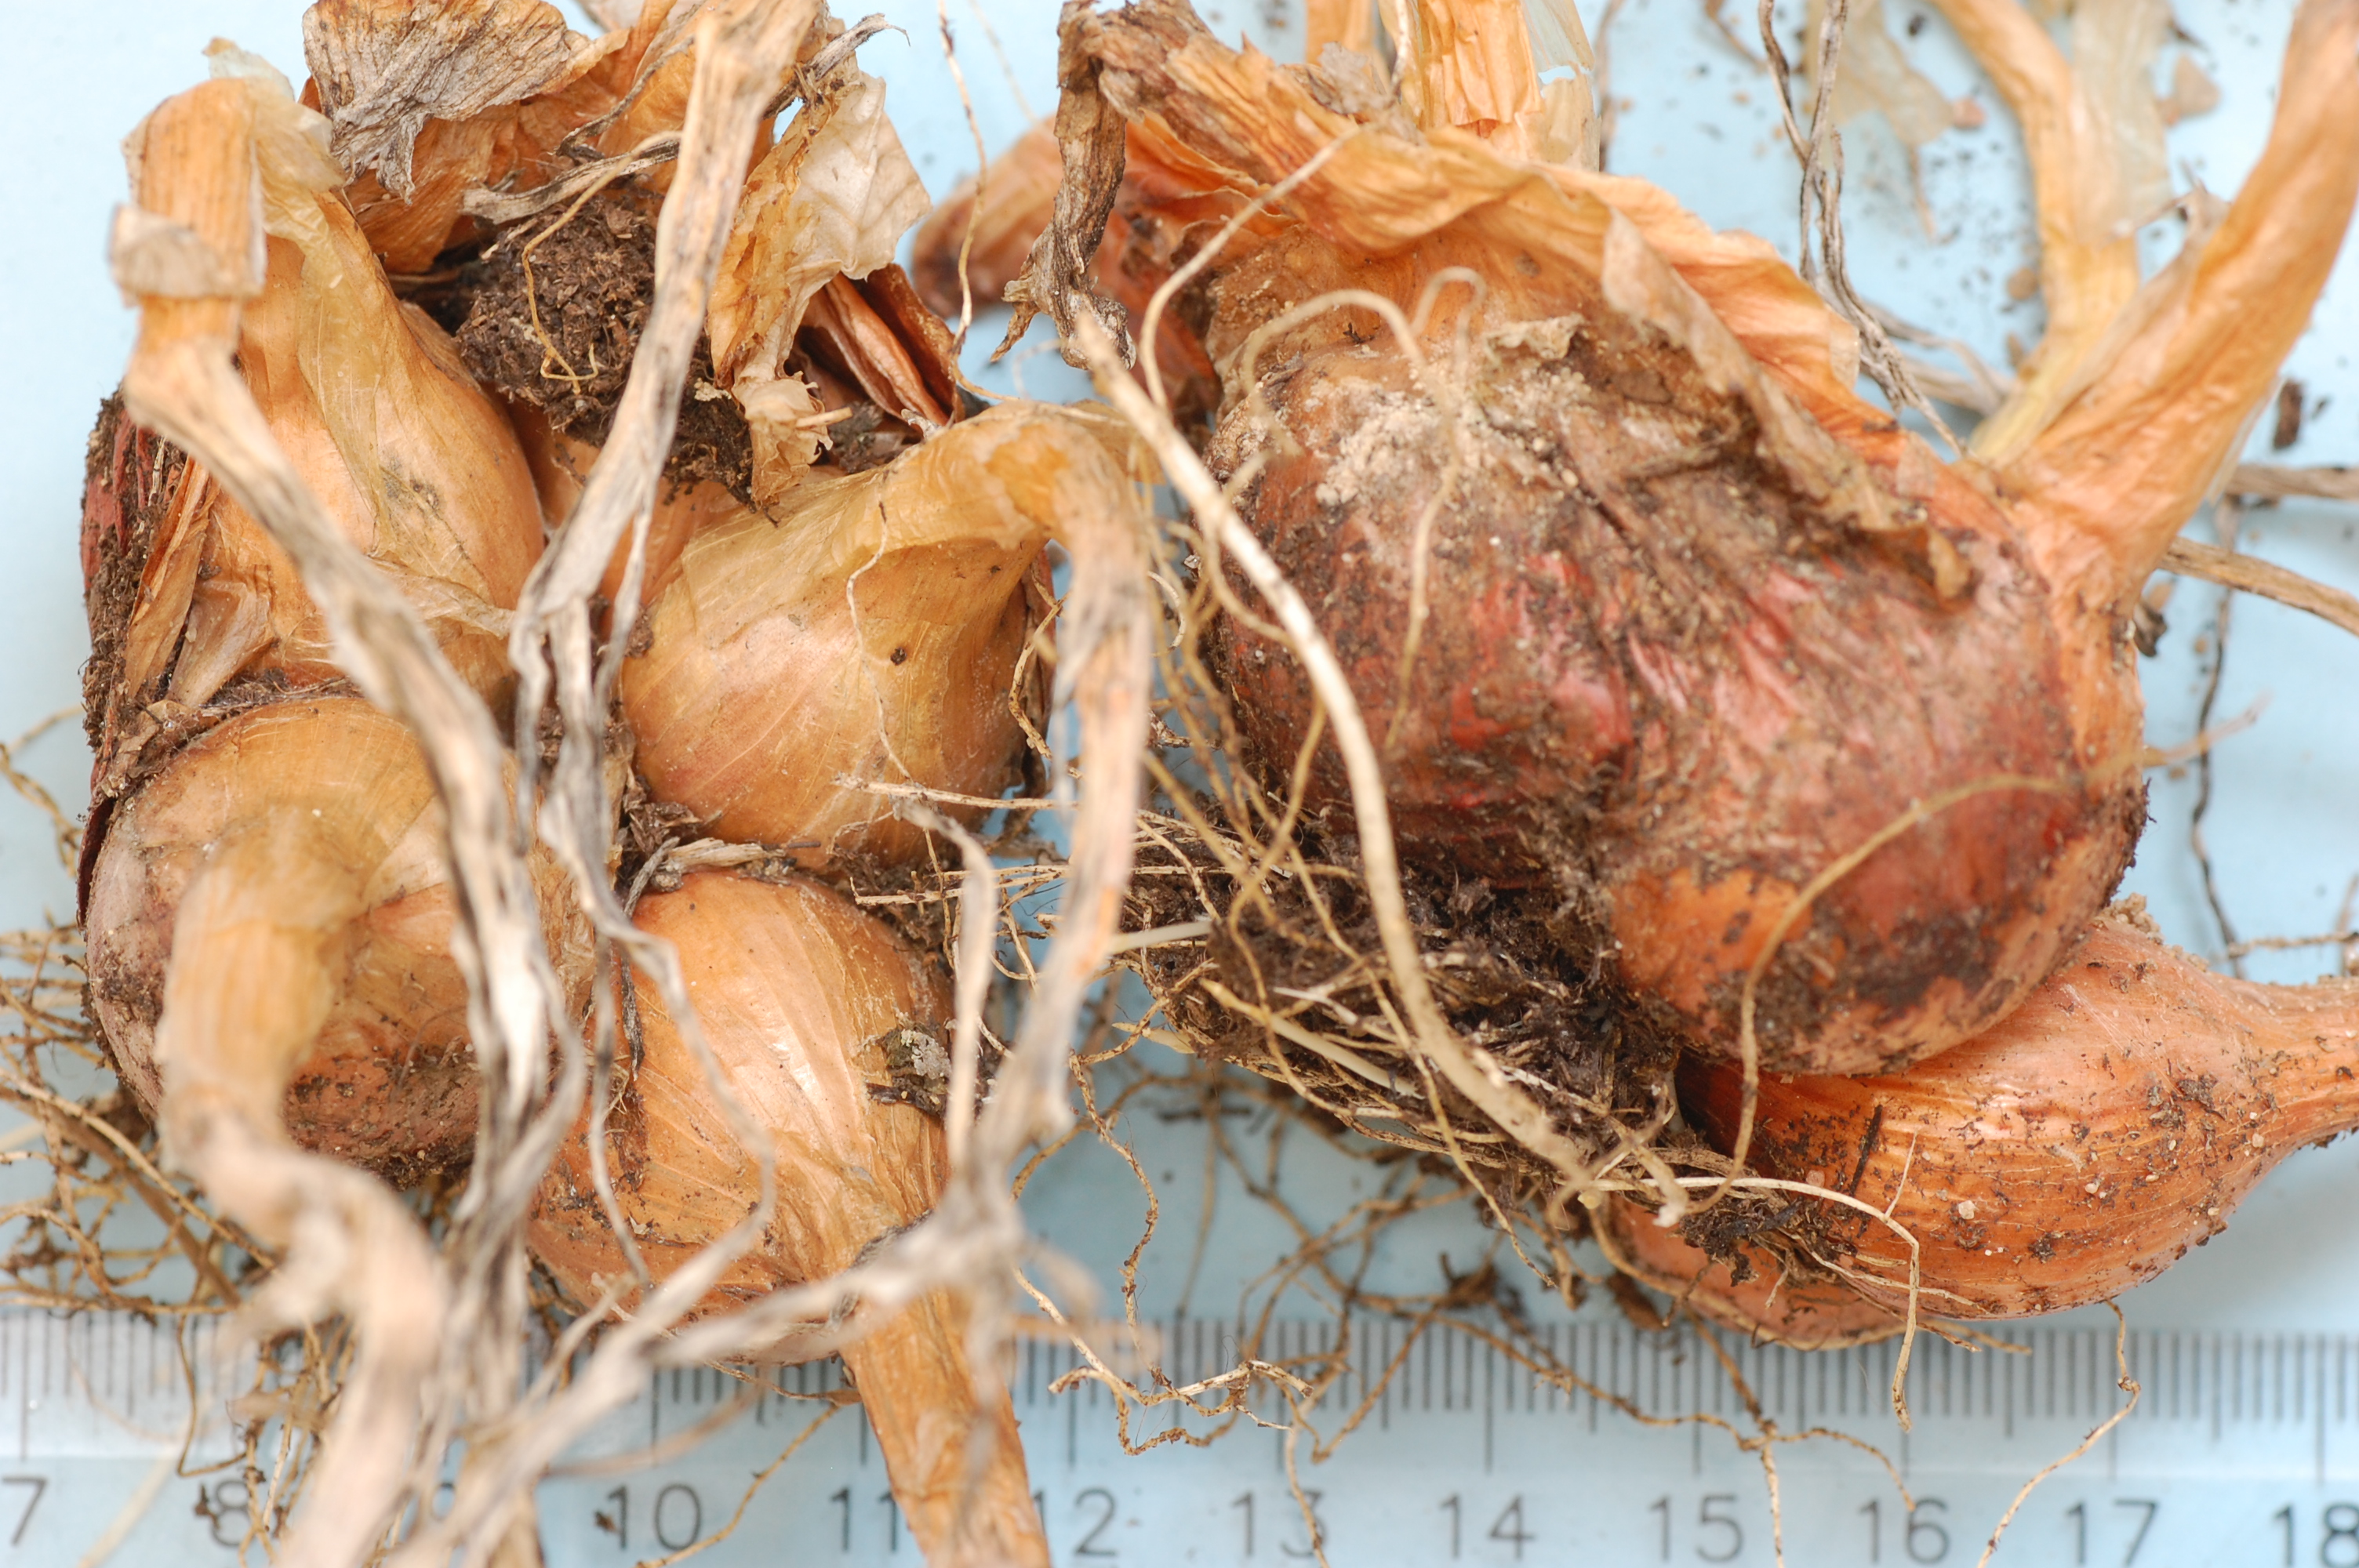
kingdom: Plantae
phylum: Tracheophyta
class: Liliopsida
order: Asparagales
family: Amaryllidaceae
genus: Allium
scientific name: Allium cepa
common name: Onion
